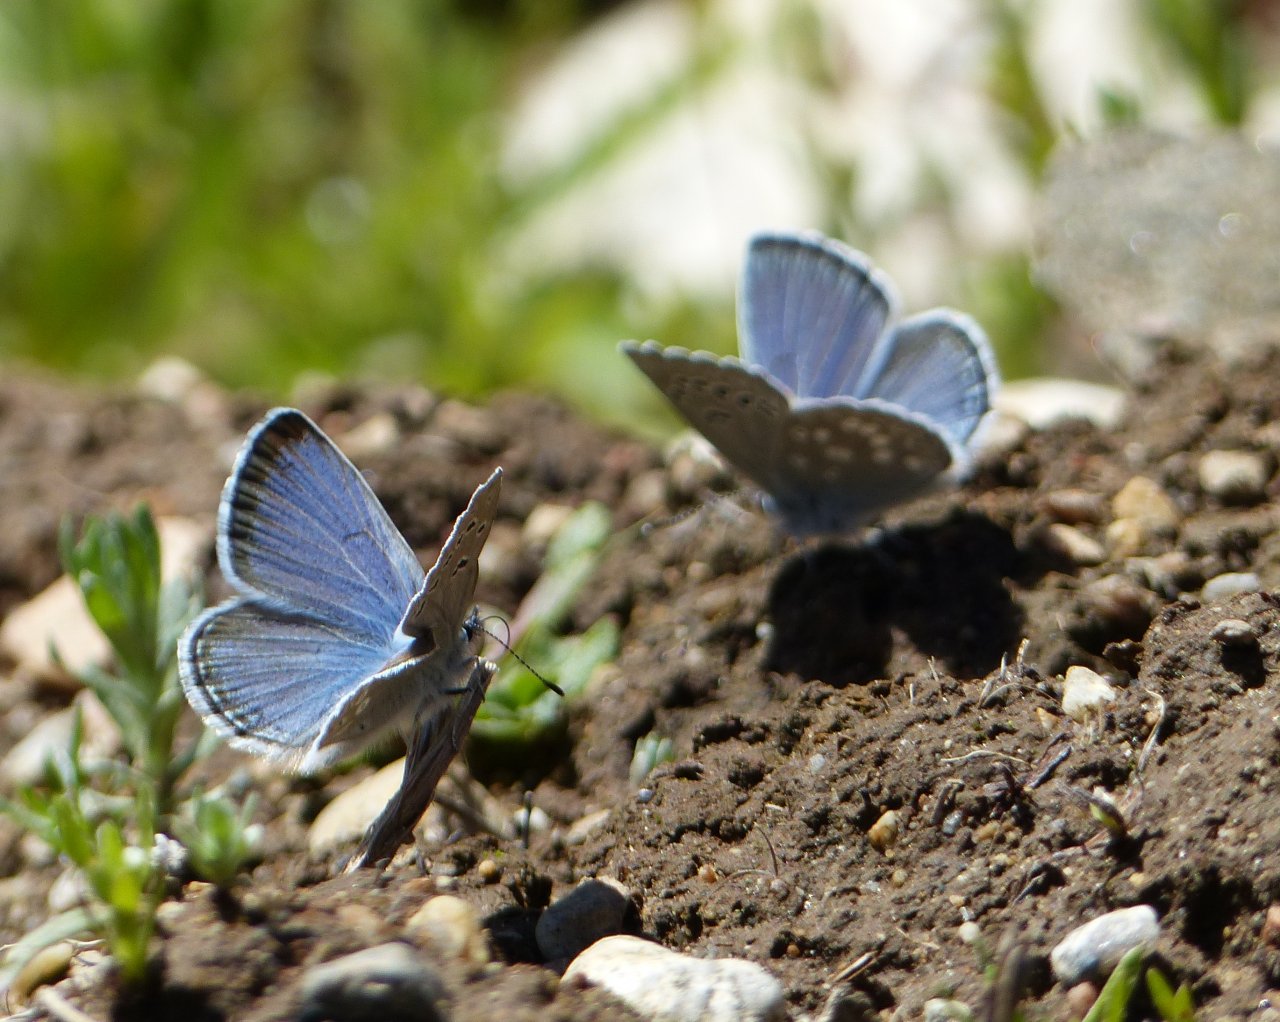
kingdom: Animalia
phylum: Arthropoda
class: Insecta
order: Lepidoptera
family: Lycaenidae
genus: Icaricia
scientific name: Icaricia icarioides
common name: Boisduval's Blue
